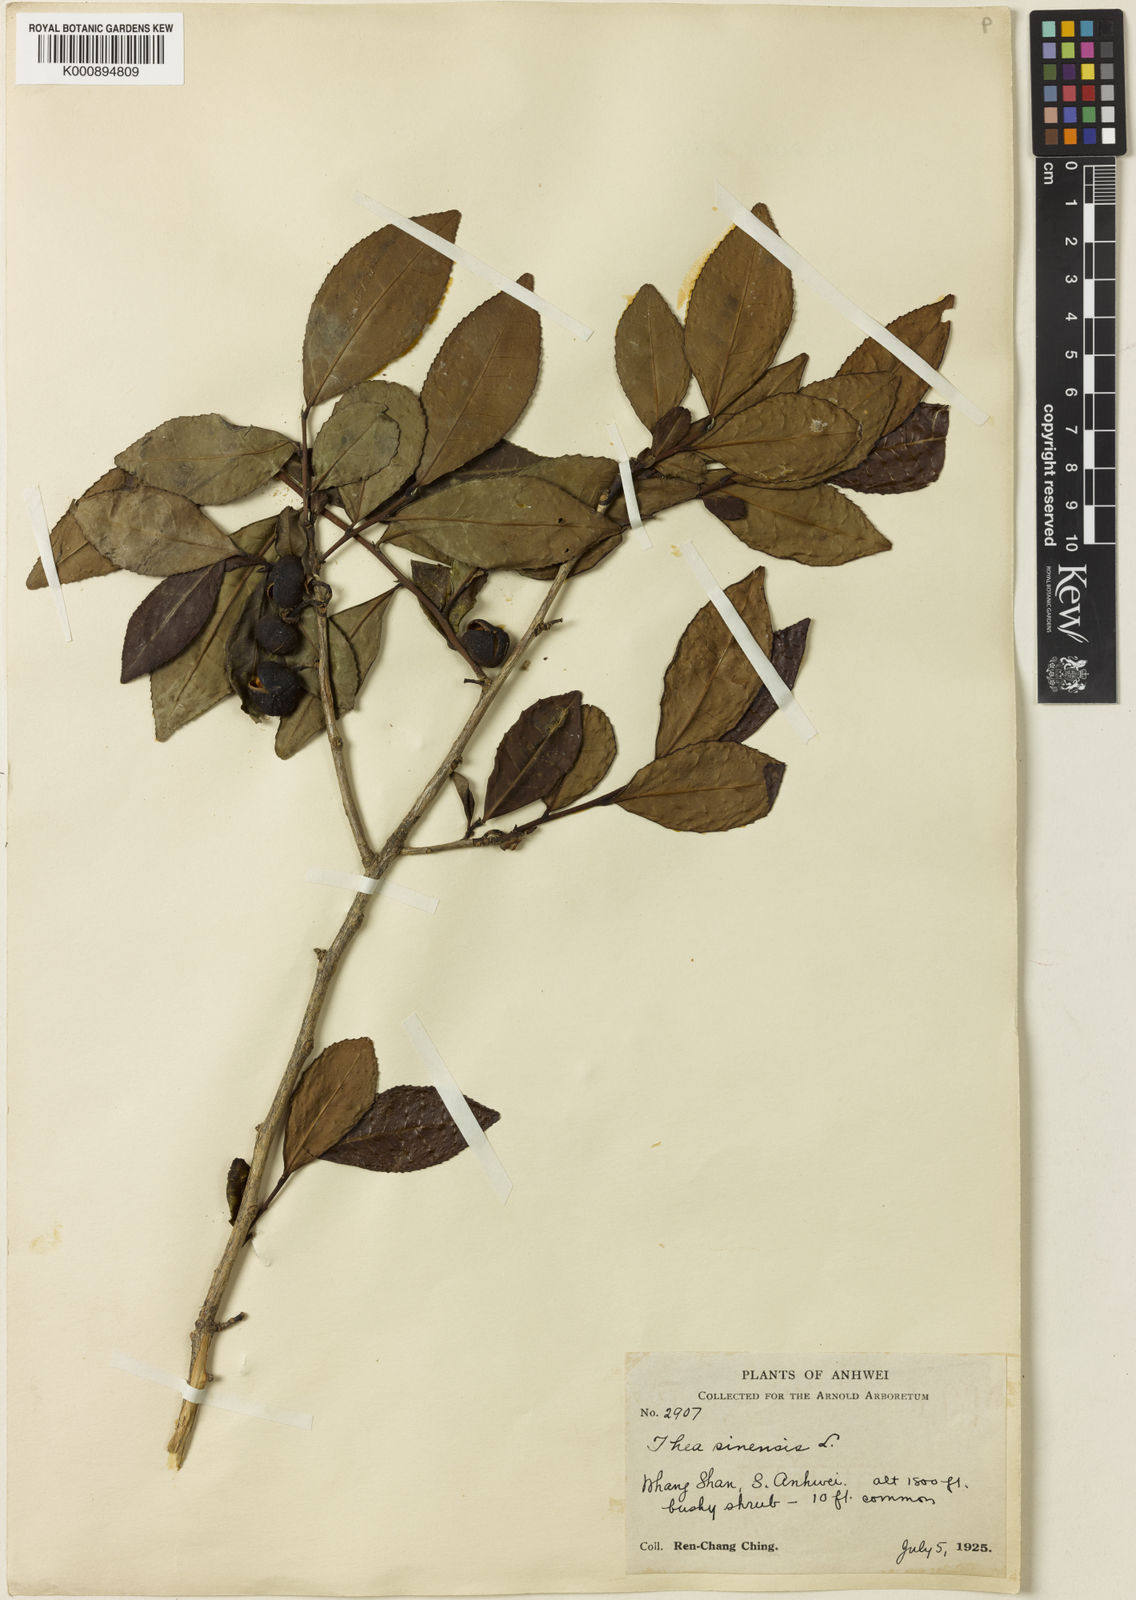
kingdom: Plantae
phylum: Tracheophyta
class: Magnoliopsida
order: Ericales
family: Theaceae
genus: Camellia
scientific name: Camellia sinensis
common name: Tea
